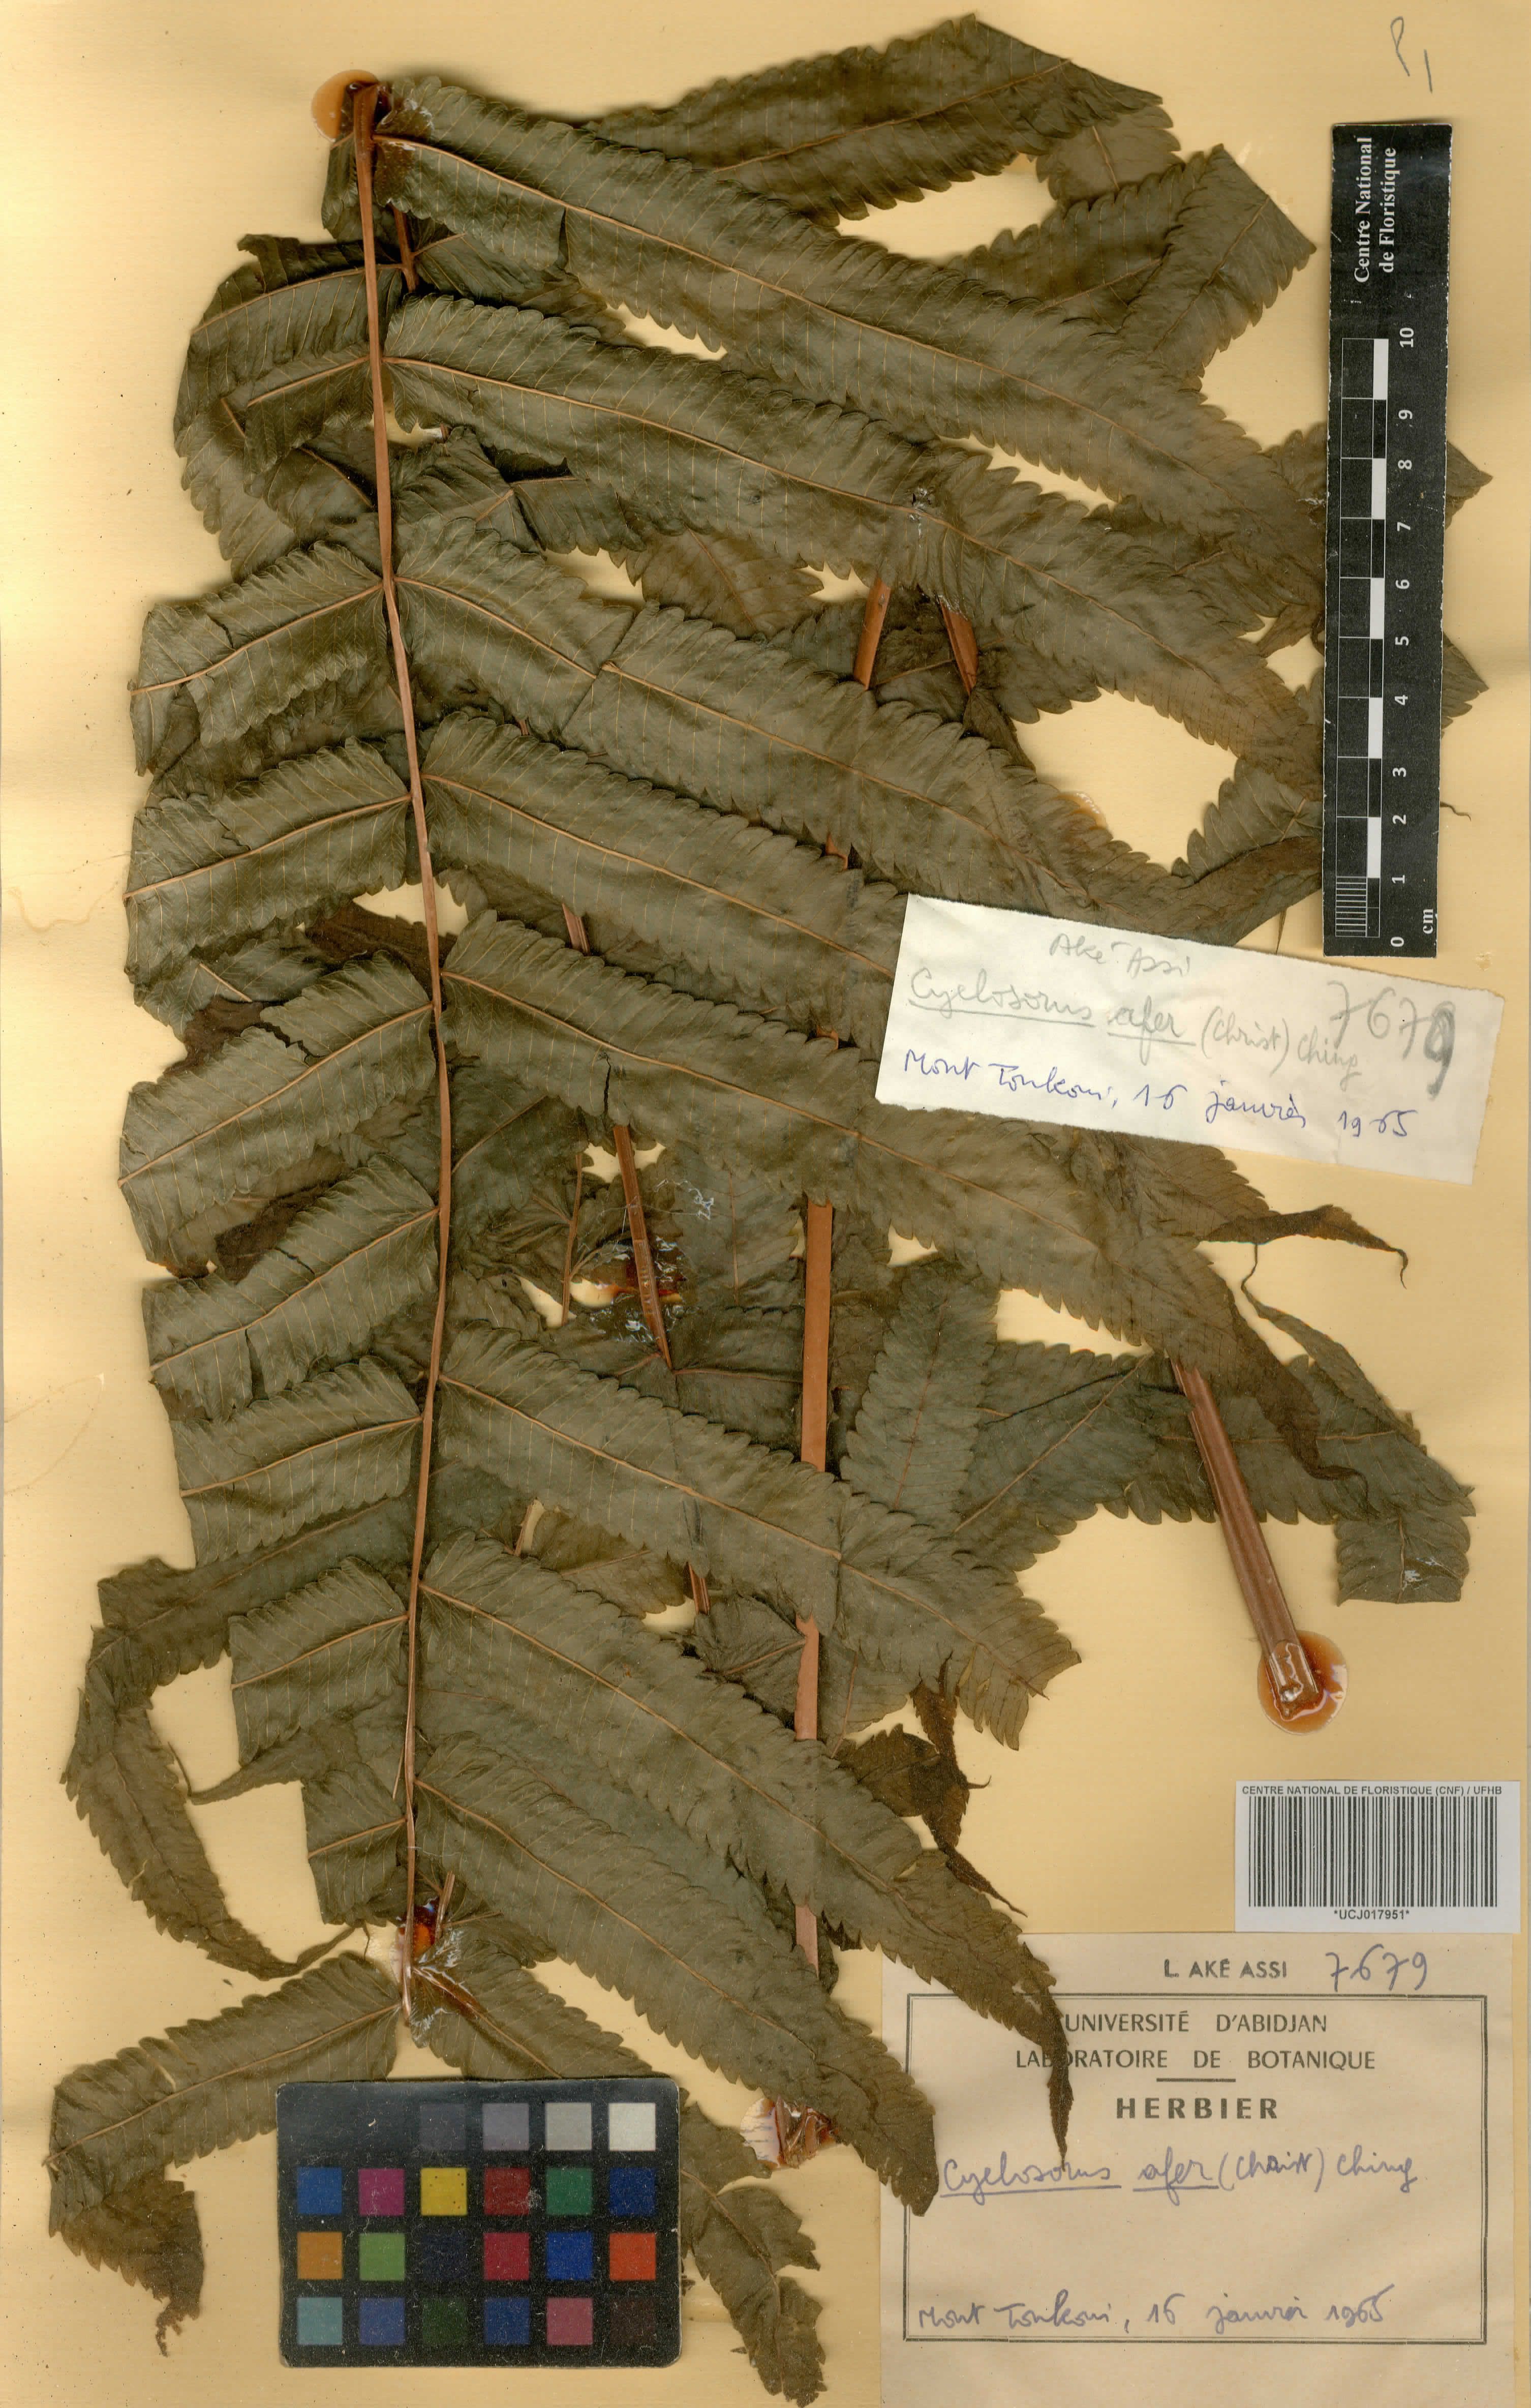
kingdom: Plantae
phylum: Tracheophyta
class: Polypodiopsida
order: Polypodiales
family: Thelypteridaceae
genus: Abacopteris
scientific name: Abacopteris afra
